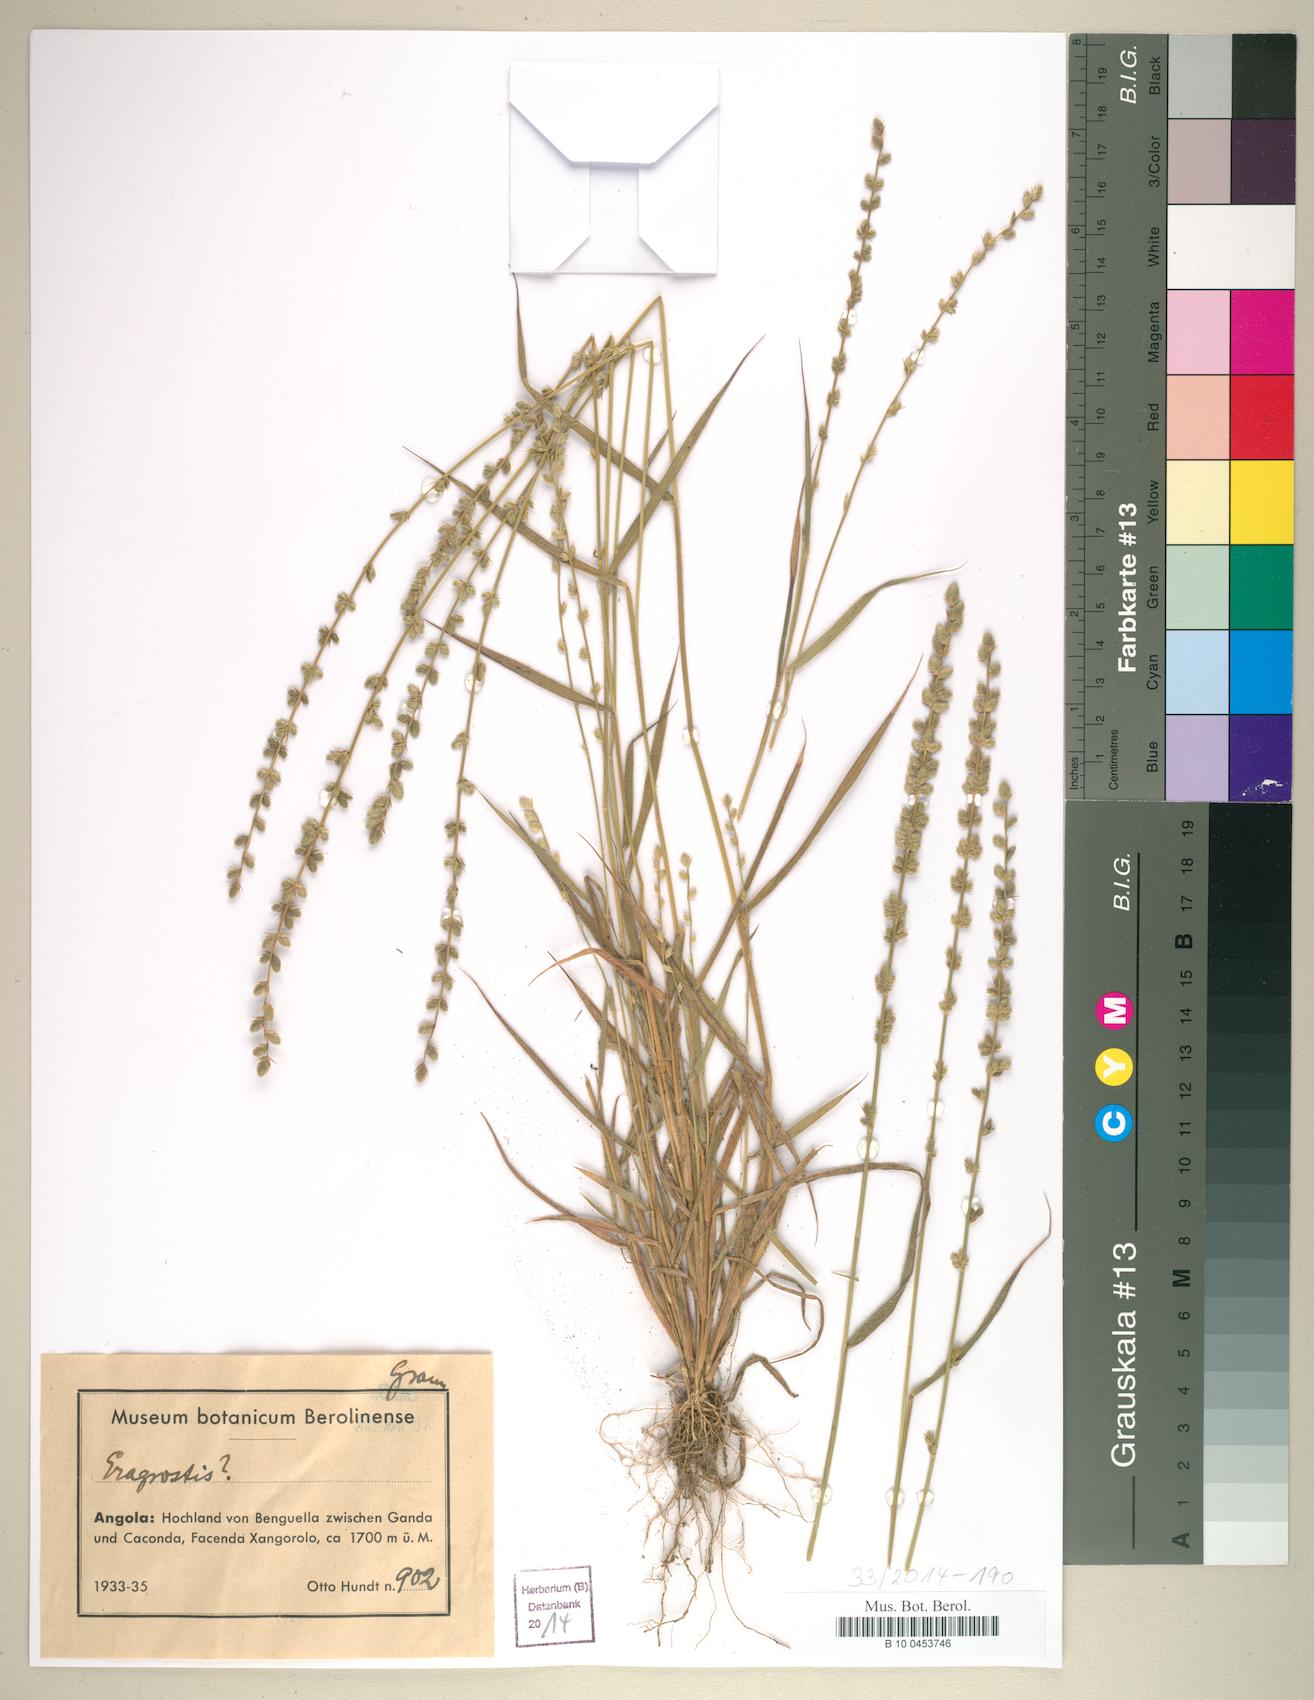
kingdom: Plantae
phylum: Tracheophyta
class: Liliopsida
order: Poales
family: Poaceae
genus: Eragrostis
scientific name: Eragrostis
